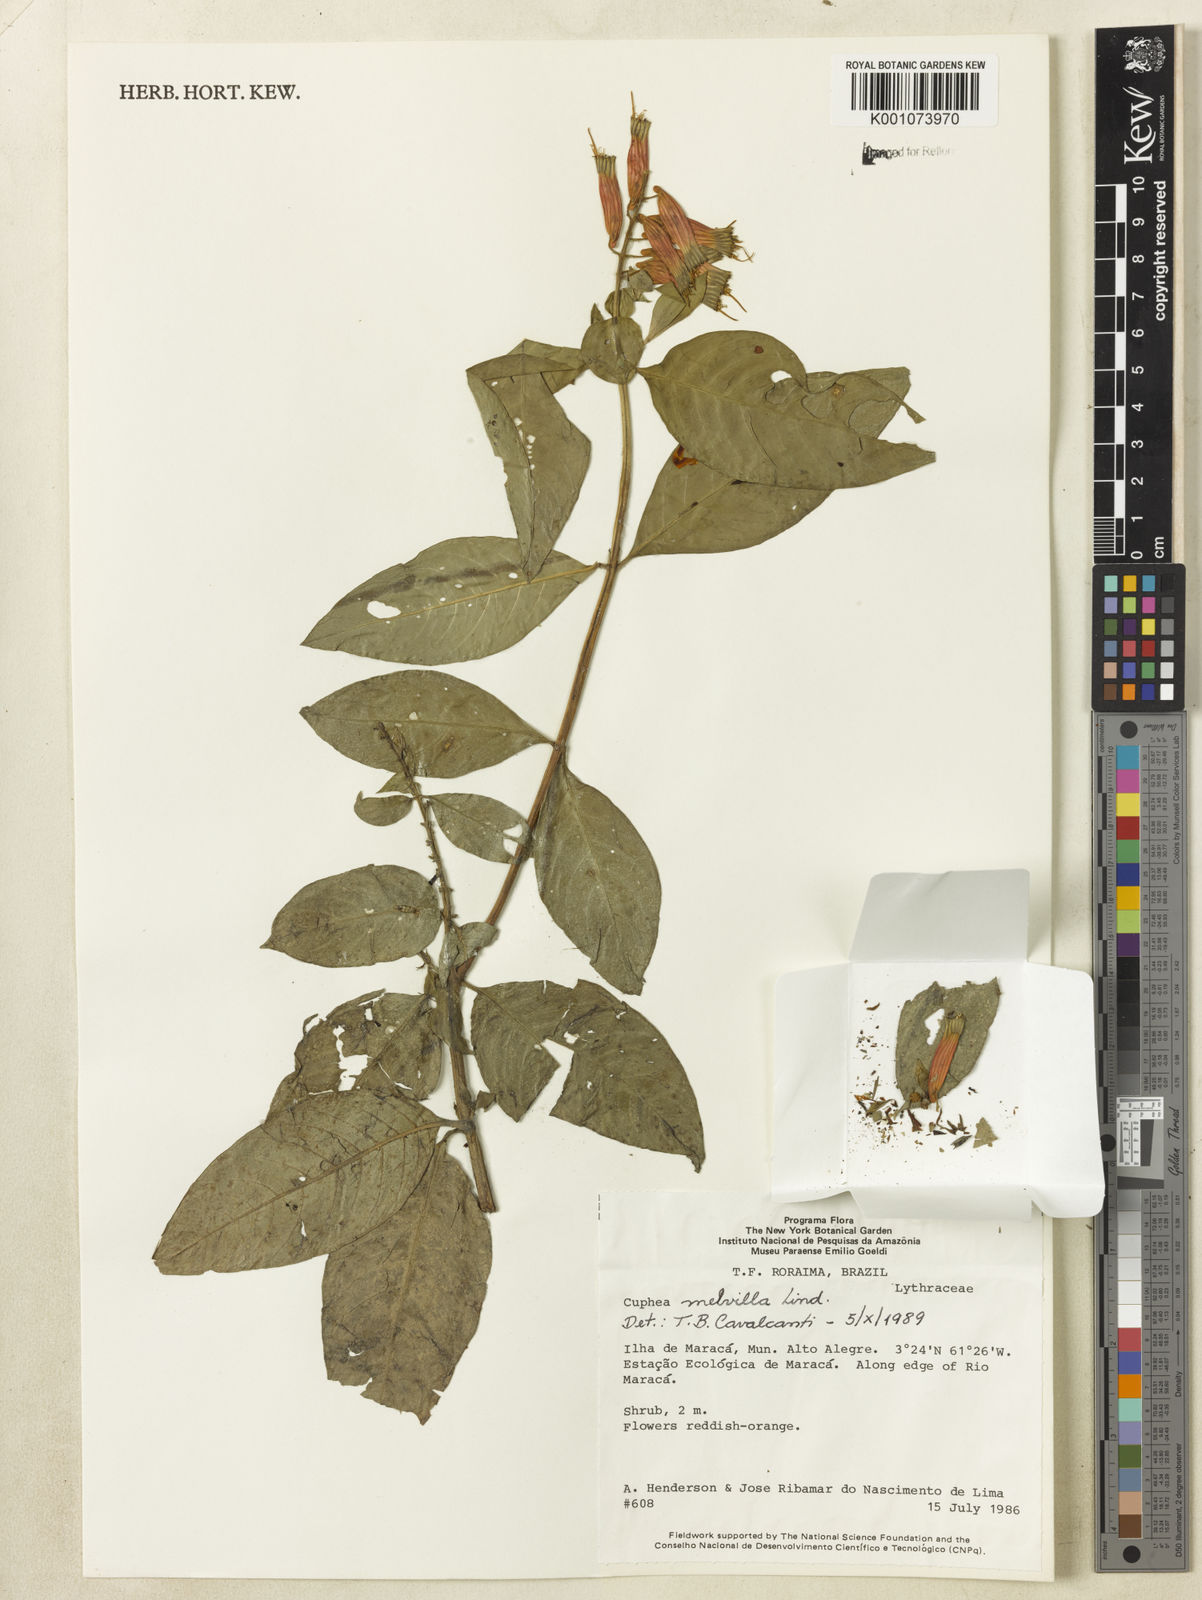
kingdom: Plantae
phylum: Tracheophyta
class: Magnoliopsida
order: Myrtales
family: Lythraceae
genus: Cuphea
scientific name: Cuphea melvilla
